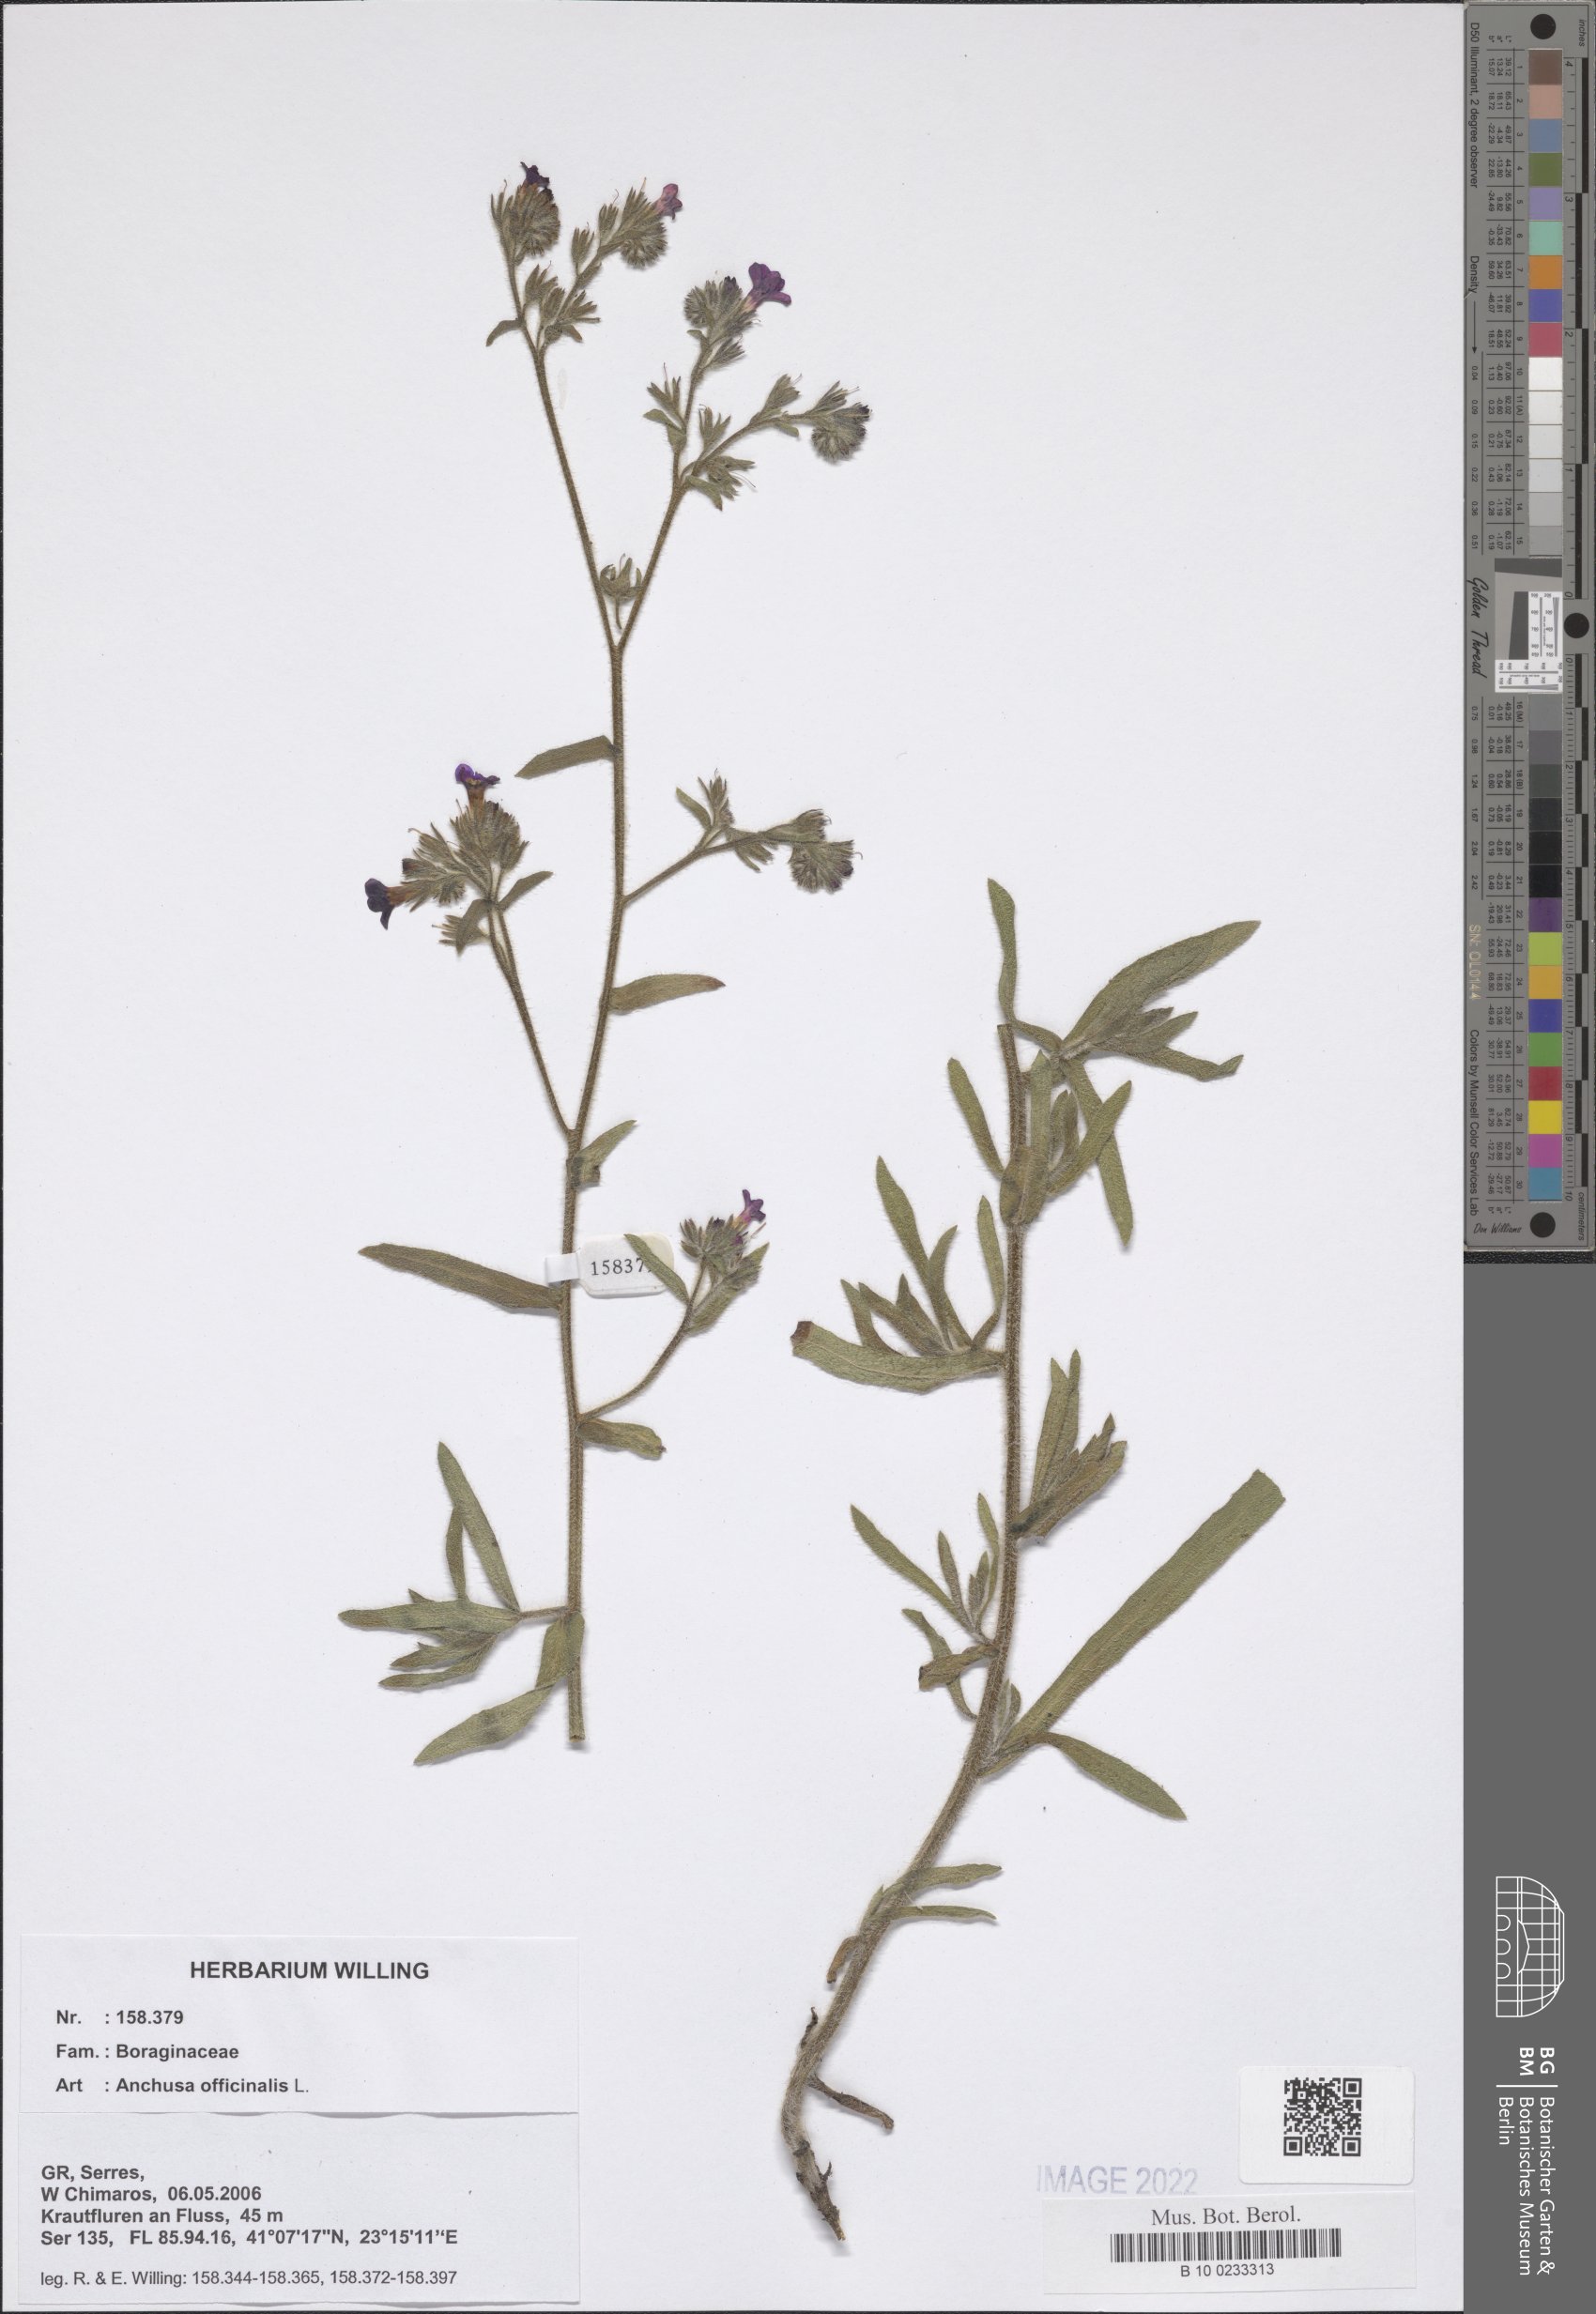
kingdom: Plantae
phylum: Tracheophyta
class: Magnoliopsida
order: Boraginales
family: Boraginaceae
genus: Anchusa
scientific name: Anchusa officinalis
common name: Alkanet
